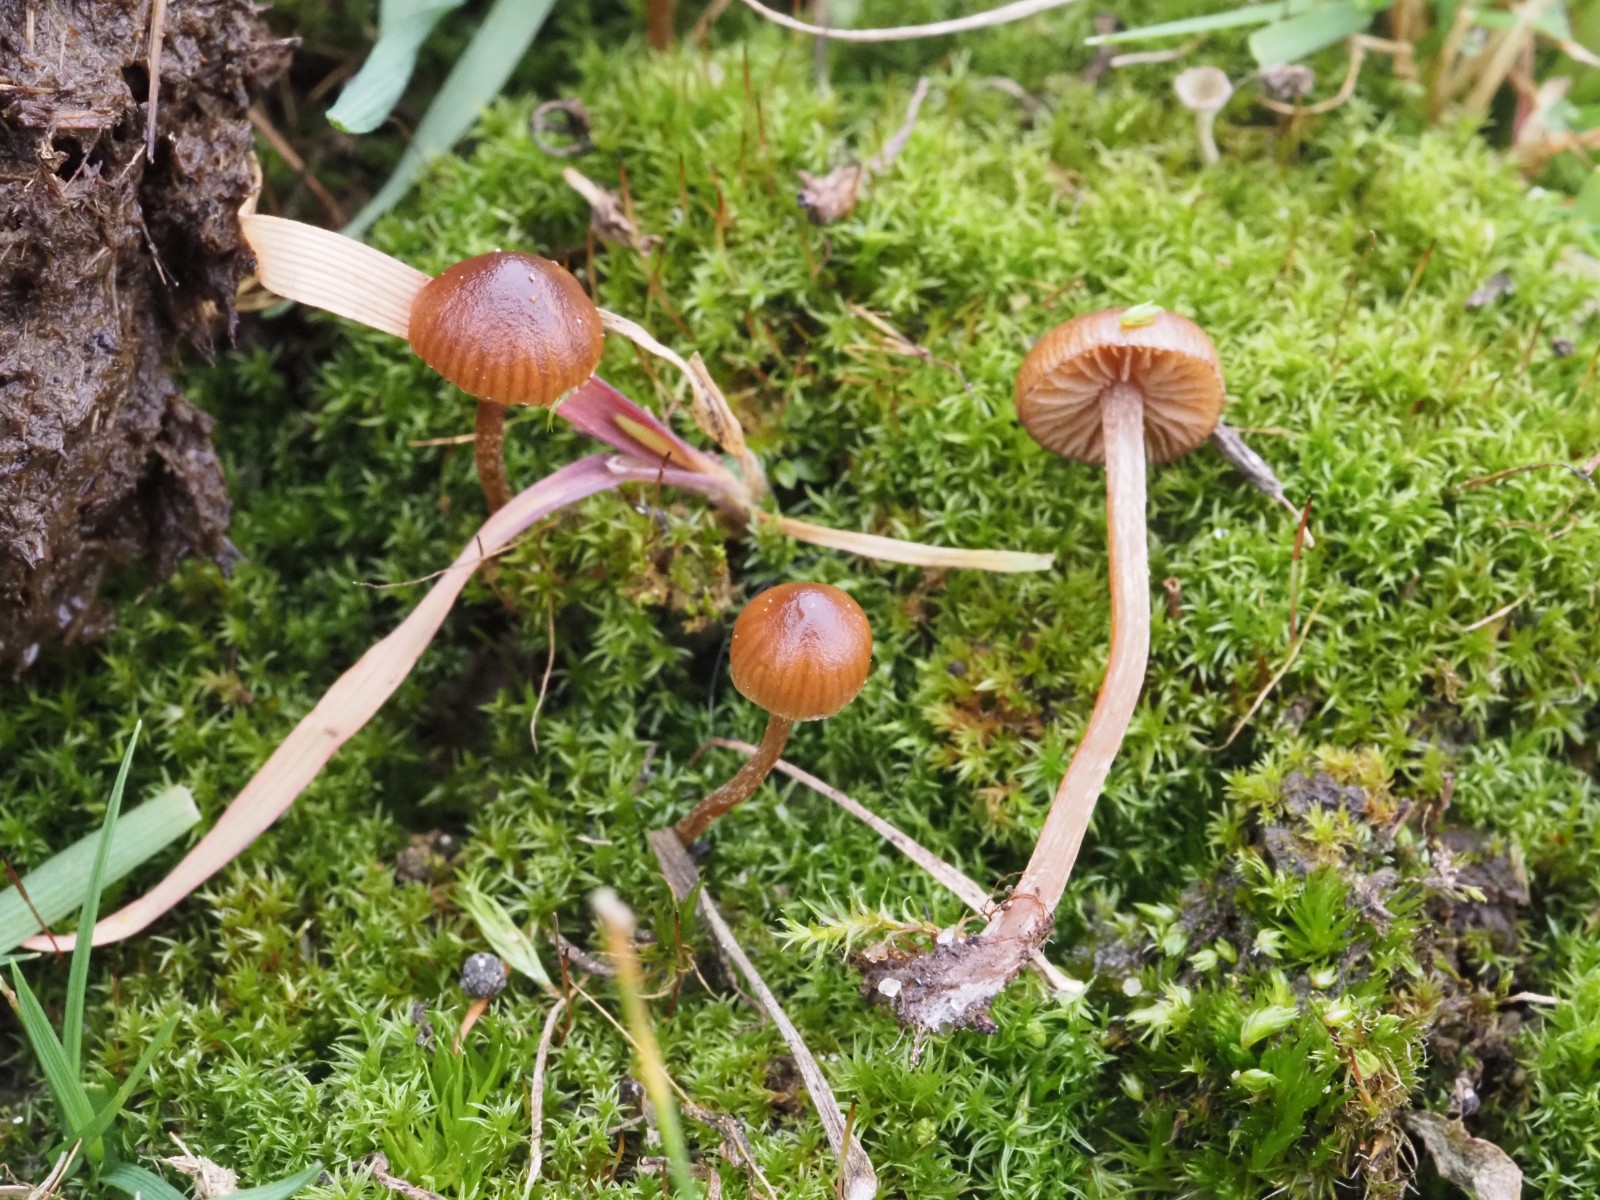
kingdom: Fungi
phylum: Basidiomycota
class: Agaricomycetes
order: Agaricales
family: Strophariaceae
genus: Deconica
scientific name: Deconica montana
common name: rødbrun stråhat
